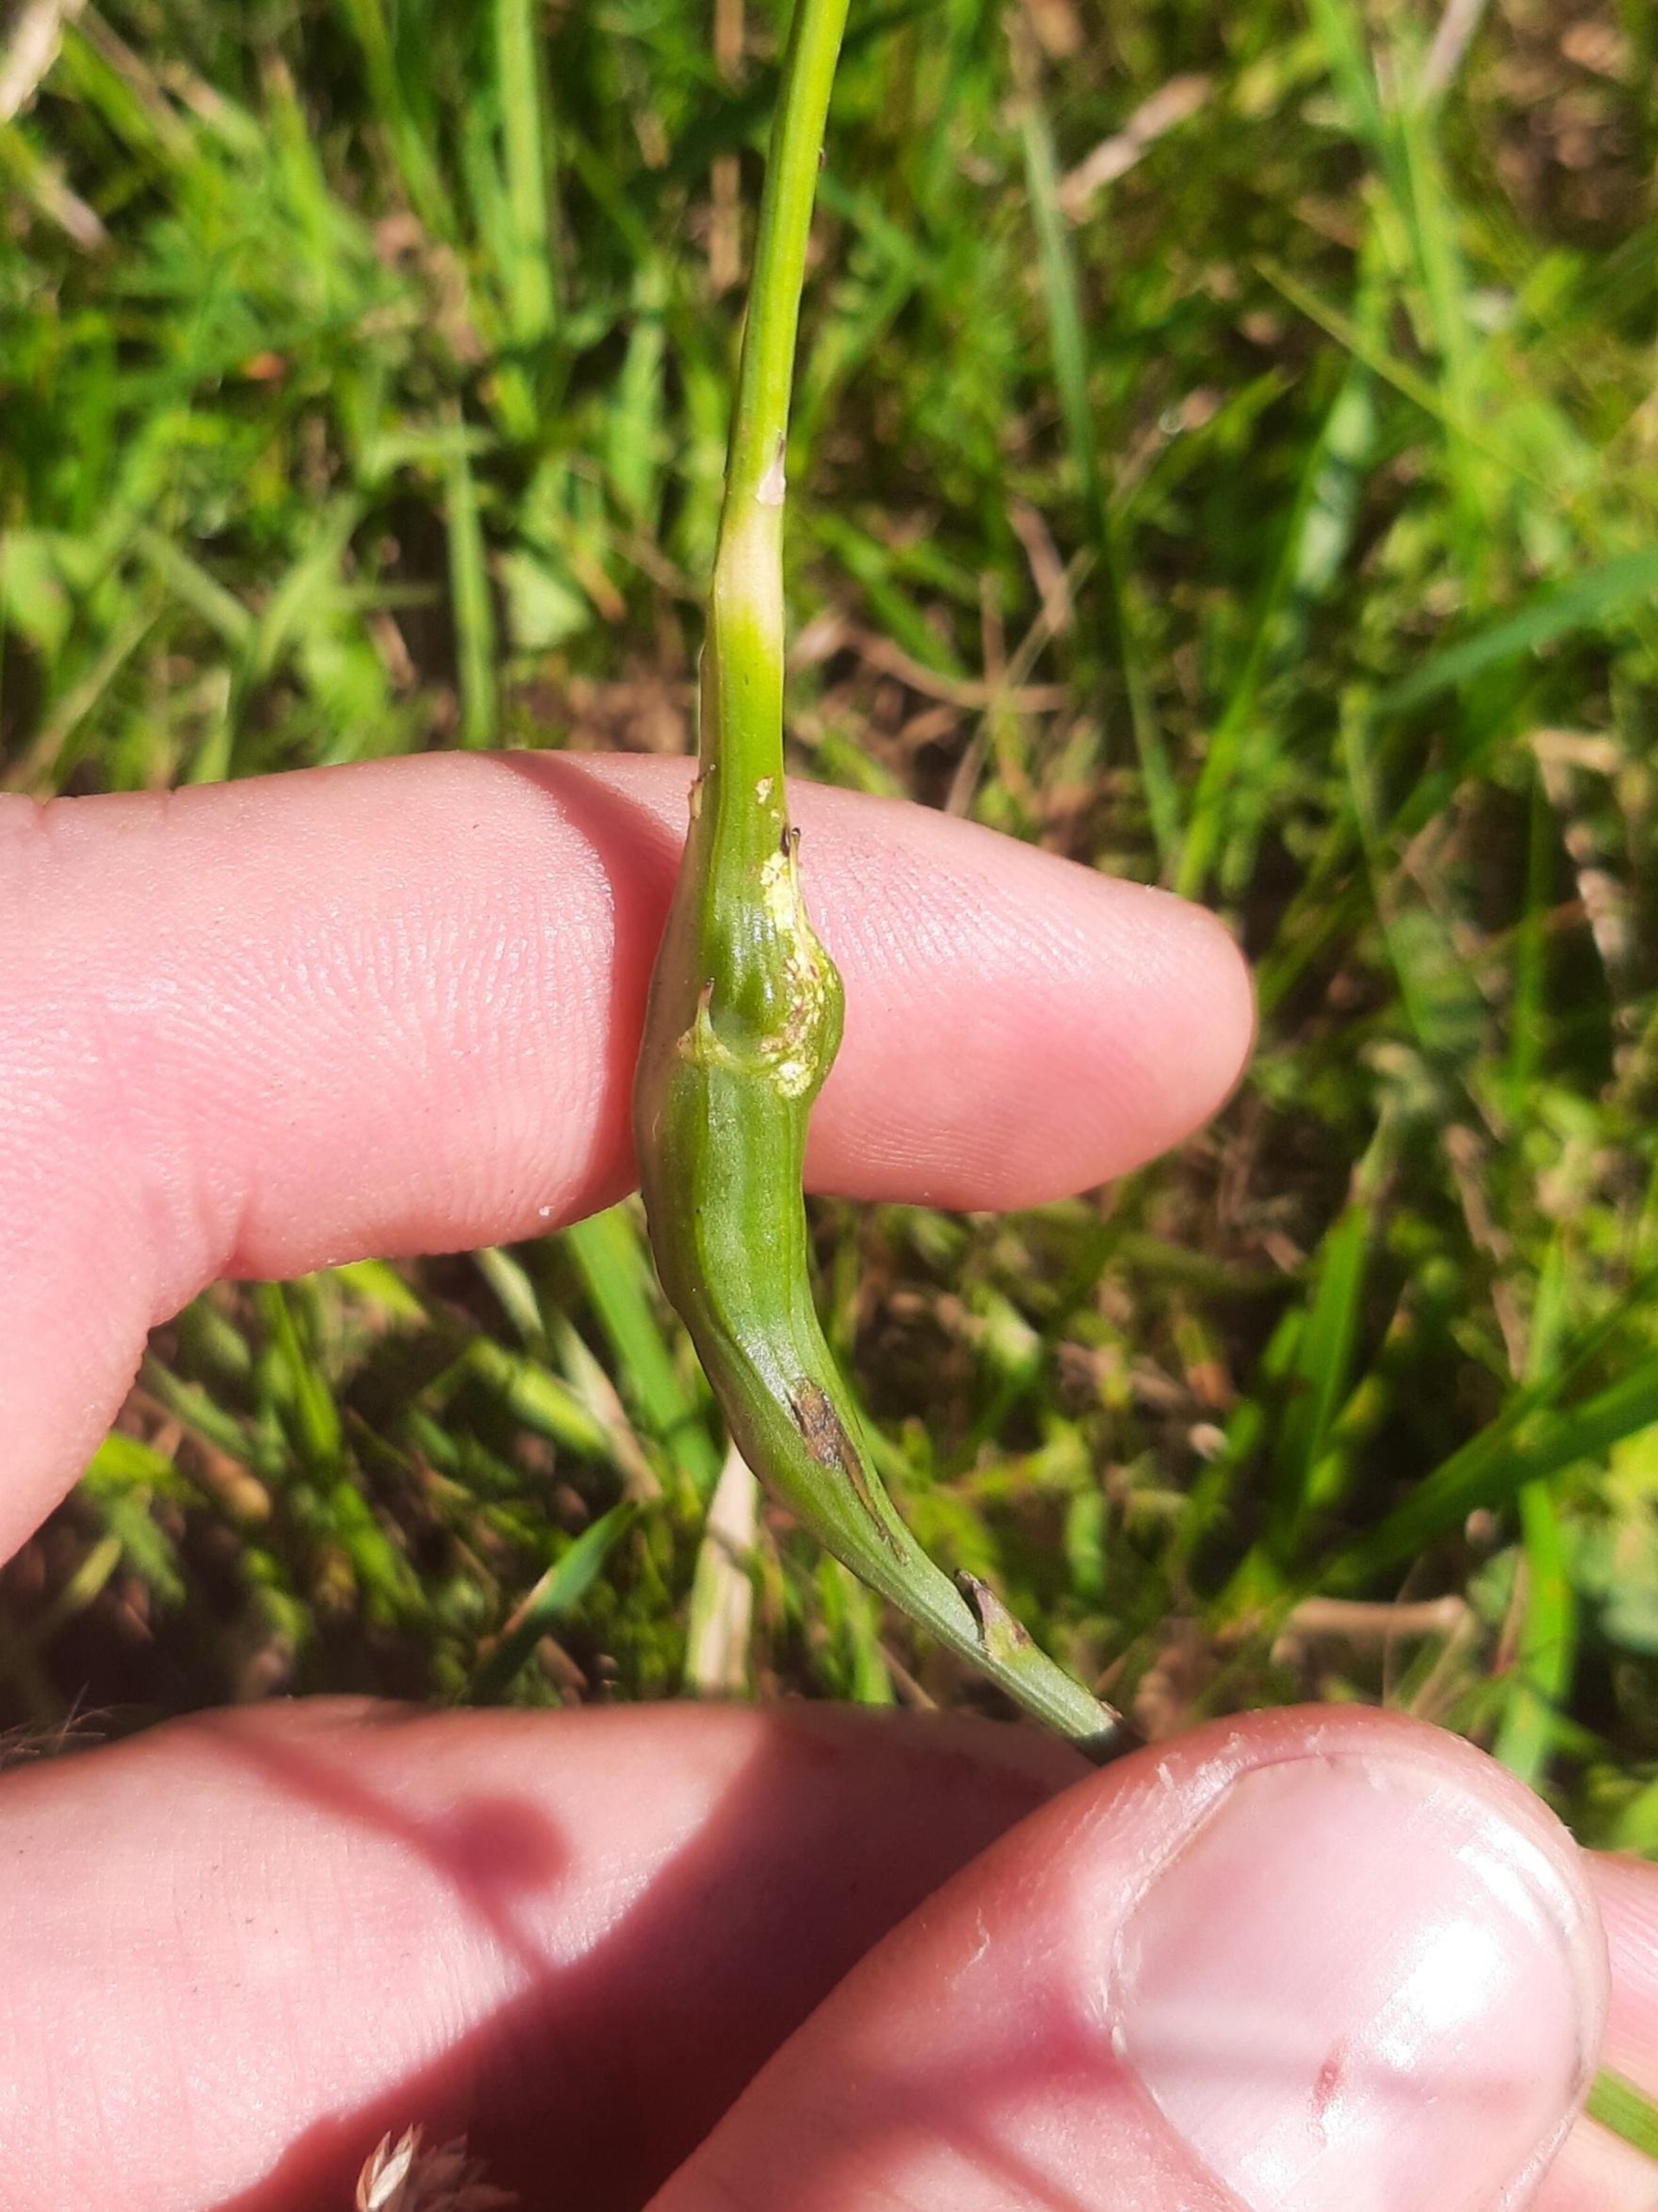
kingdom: Animalia
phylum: Arthropoda
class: Insecta
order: Hymenoptera
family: Cynipidae
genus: Phanacis
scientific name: Phanacis hypochoeridis
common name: Kongepengalhveps
